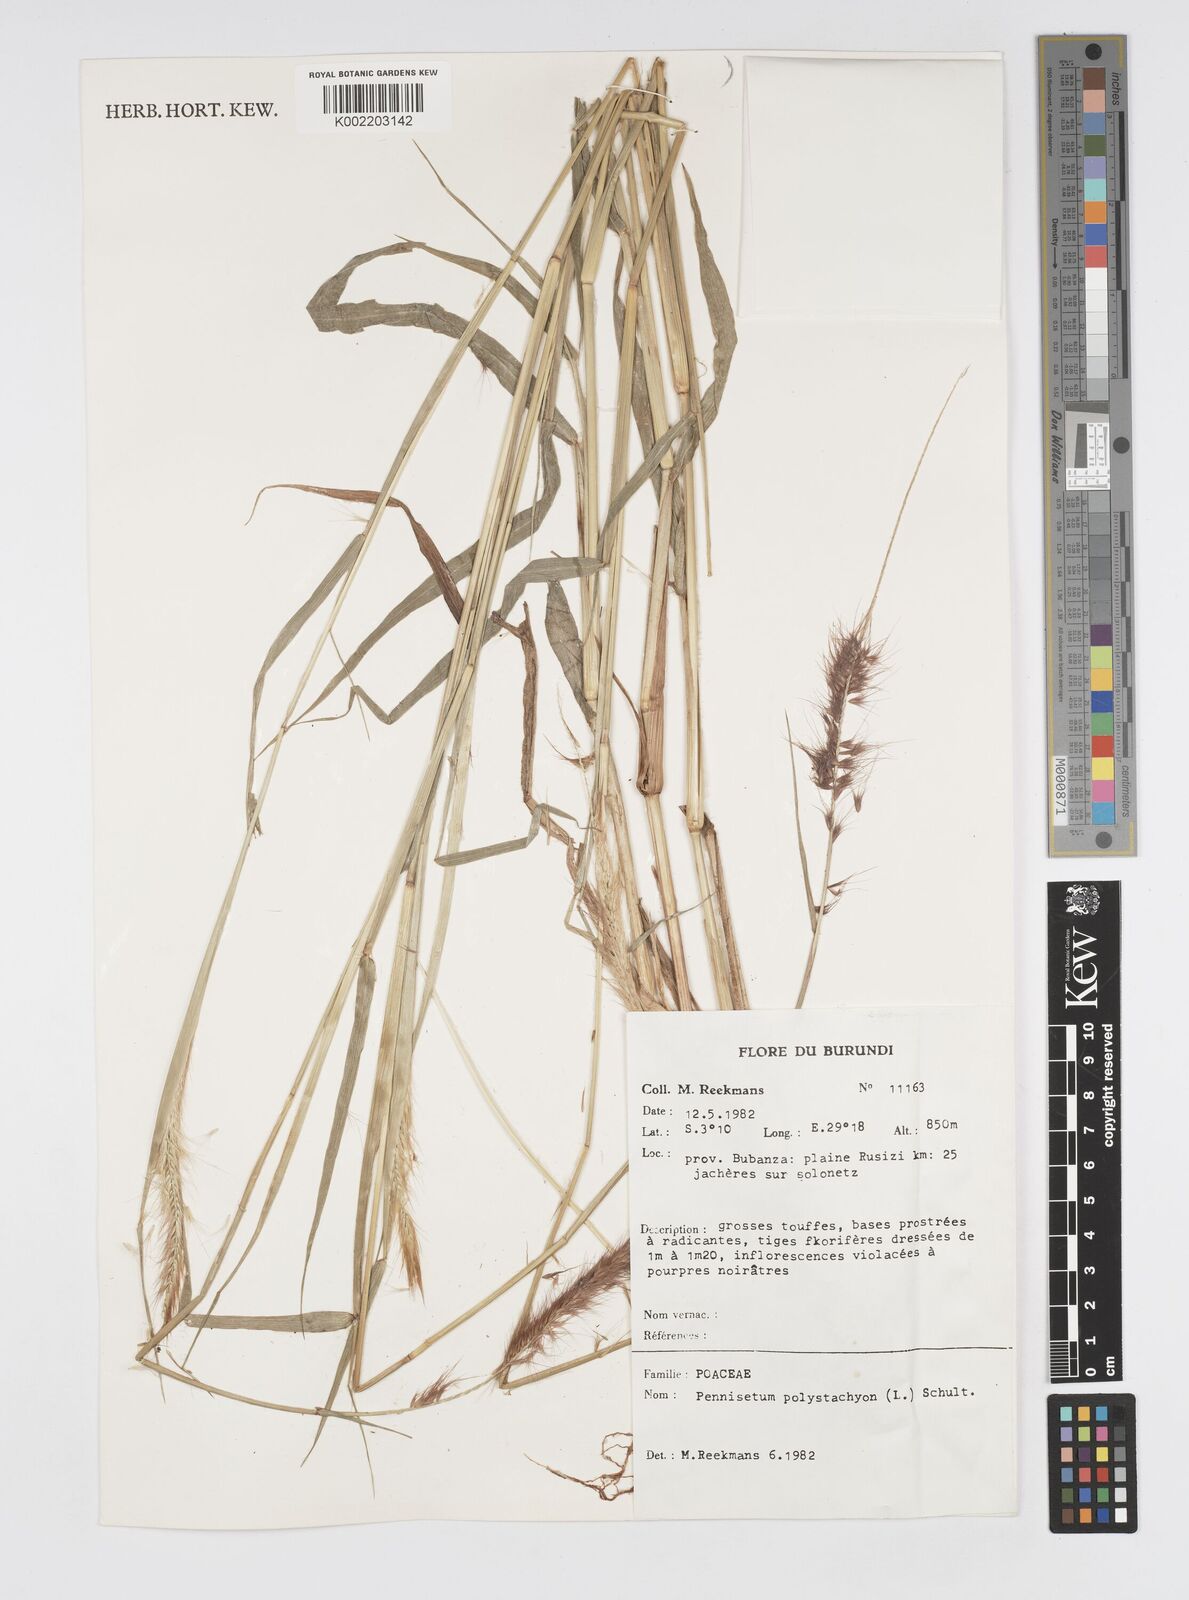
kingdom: Plantae
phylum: Tracheophyta
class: Liliopsida
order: Poales
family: Poaceae
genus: Setaria
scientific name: Setaria parviflora
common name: Knotroot bristle-grass
